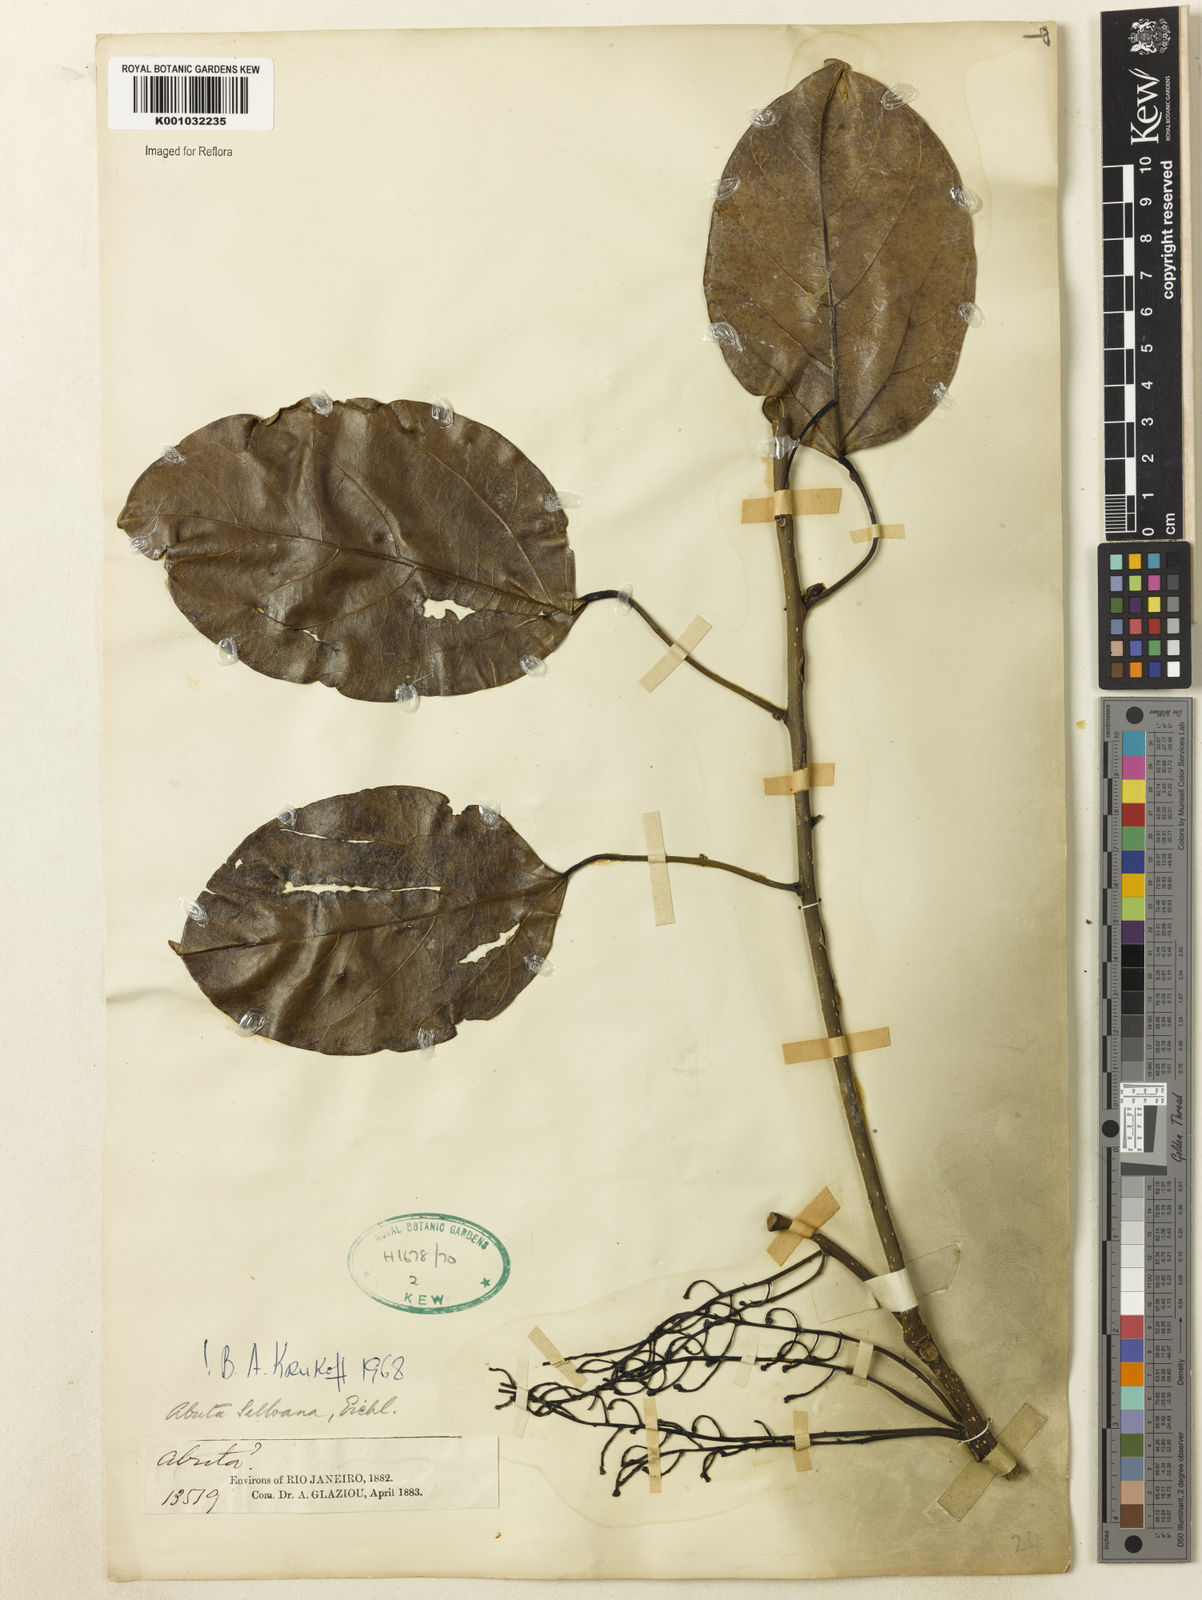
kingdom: Plantae
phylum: Tracheophyta
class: Magnoliopsida
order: Ranunculales
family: Menispermaceae
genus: Abuta
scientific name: Abuta selloana
